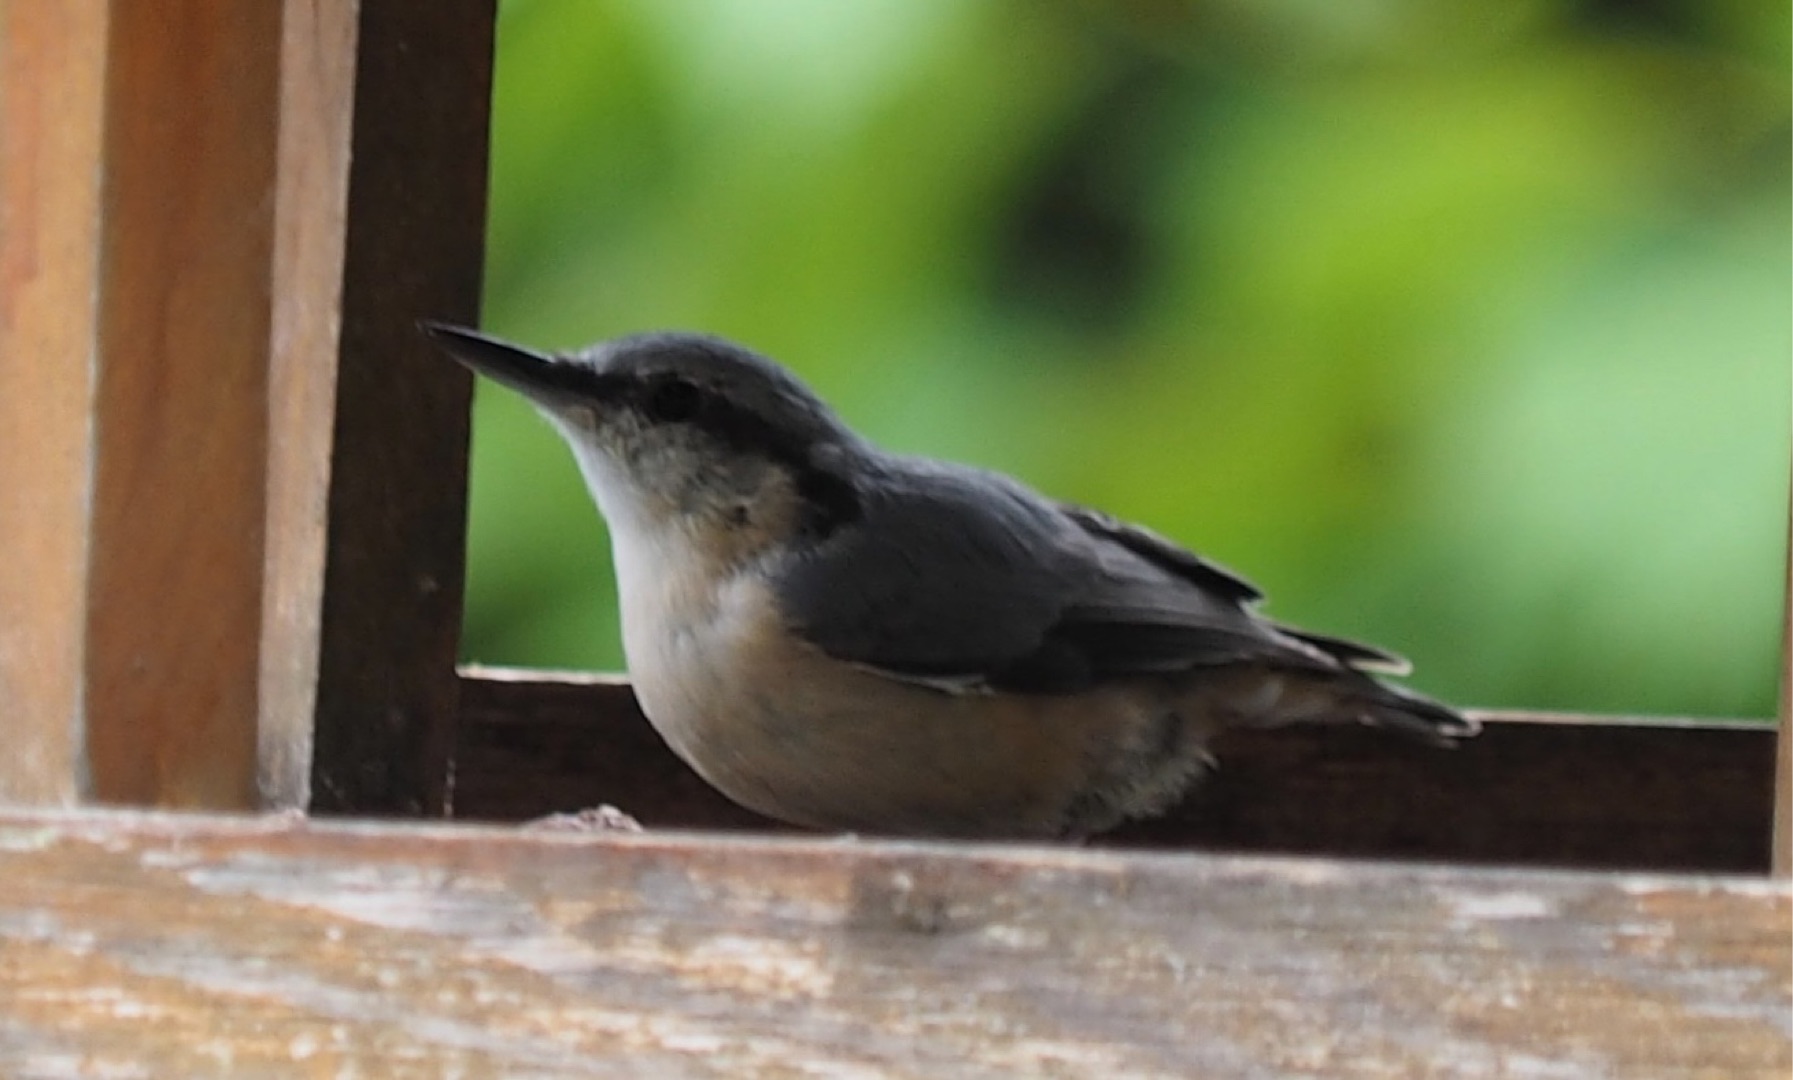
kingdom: Animalia
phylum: Chordata
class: Aves
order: Passeriformes
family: Sittidae
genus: Sitta
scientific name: Sitta europaea
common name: Spætmejse
